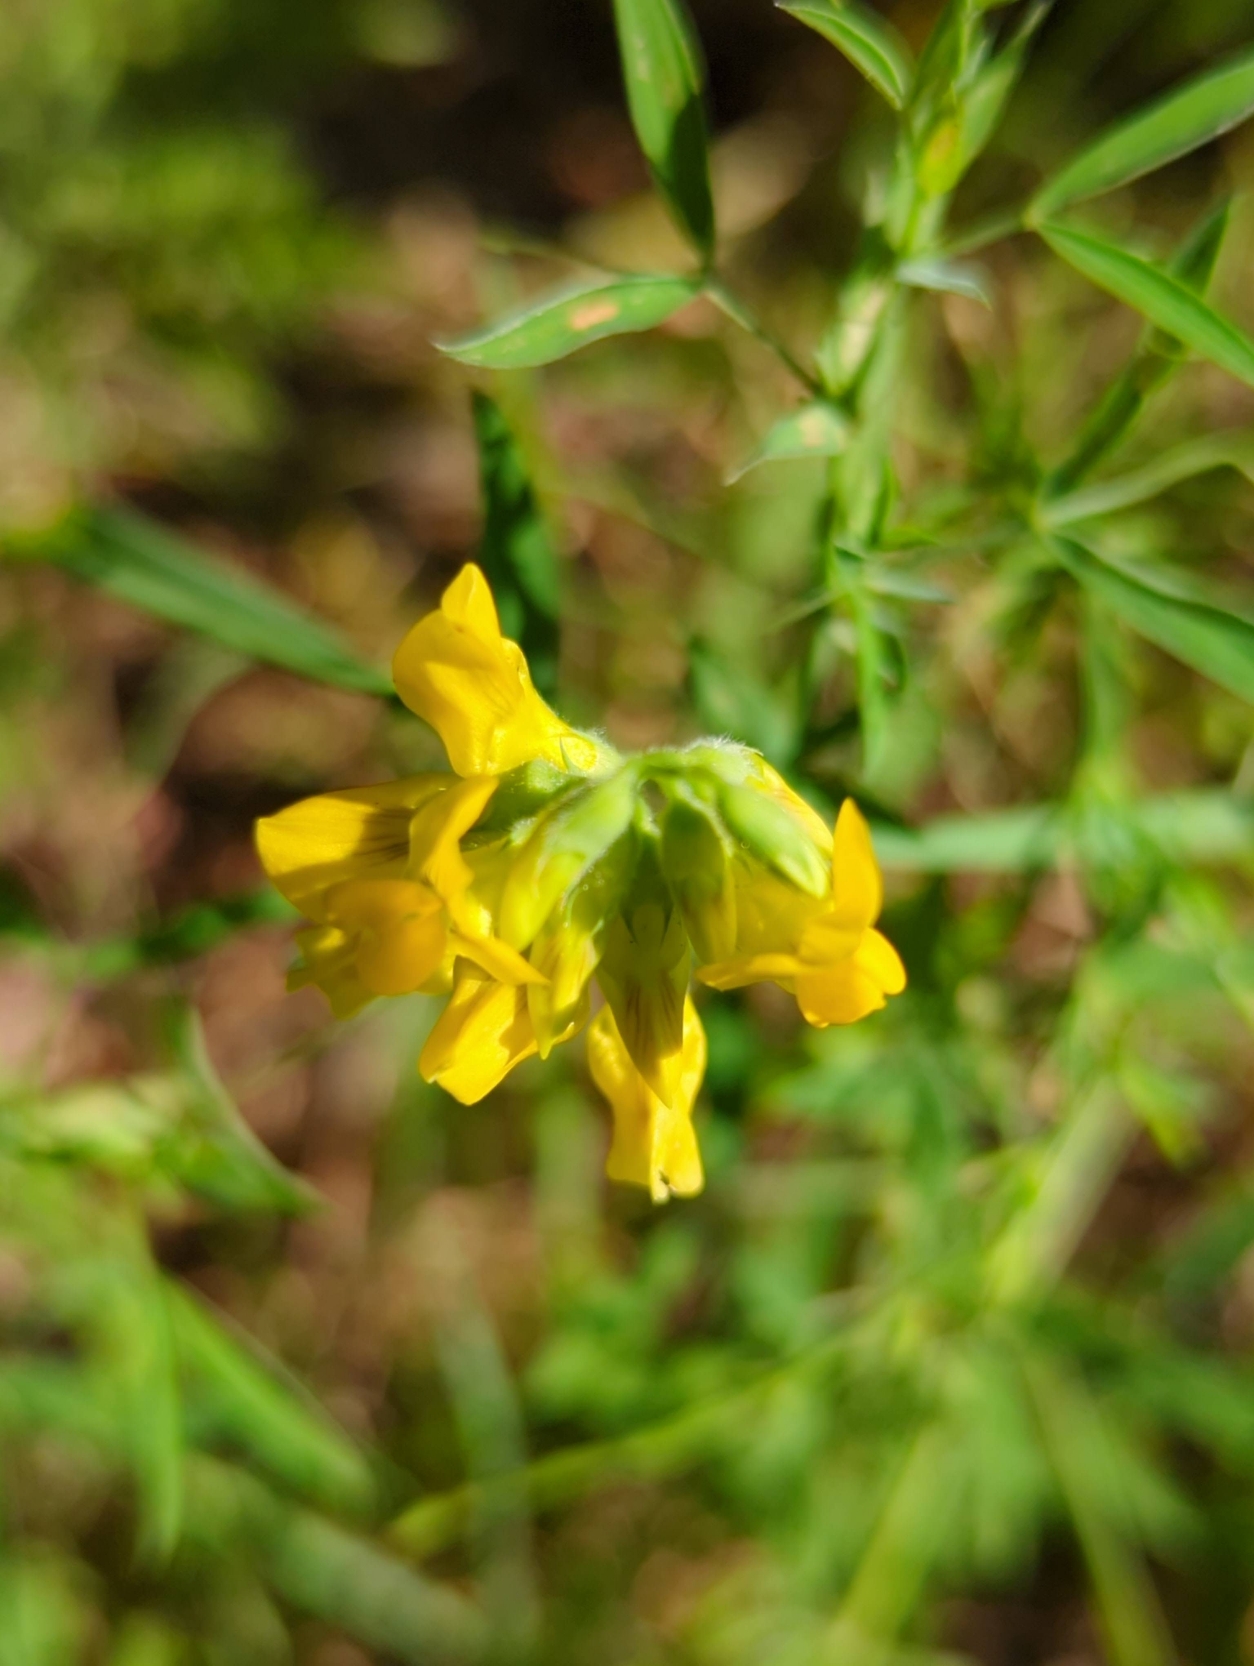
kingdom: Plantae
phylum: Tracheophyta
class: Magnoliopsida
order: Fabales
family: Fabaceae
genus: Lathyrus
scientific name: Lathyrus pratensis
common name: Gul fladbælg
